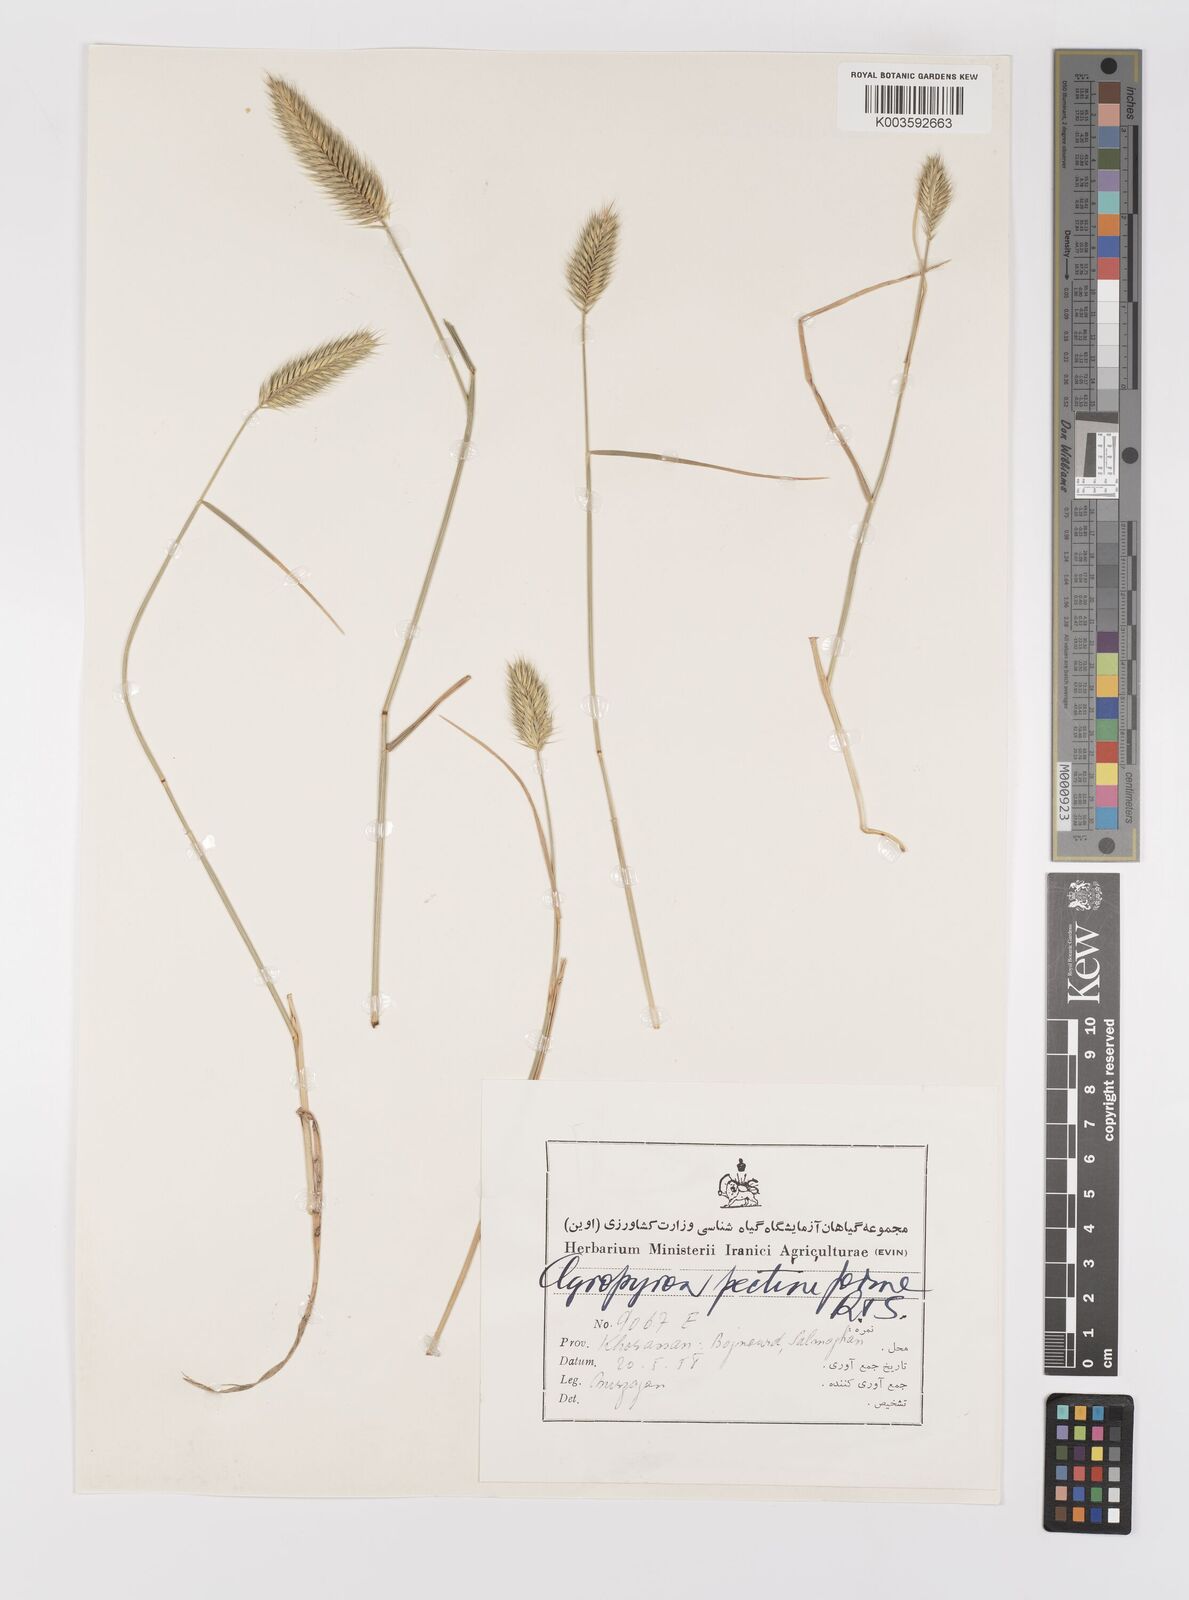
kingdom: Plantae
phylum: Tracheophyta
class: Liliopsida
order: Poales
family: Poaceae
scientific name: Poaceae
